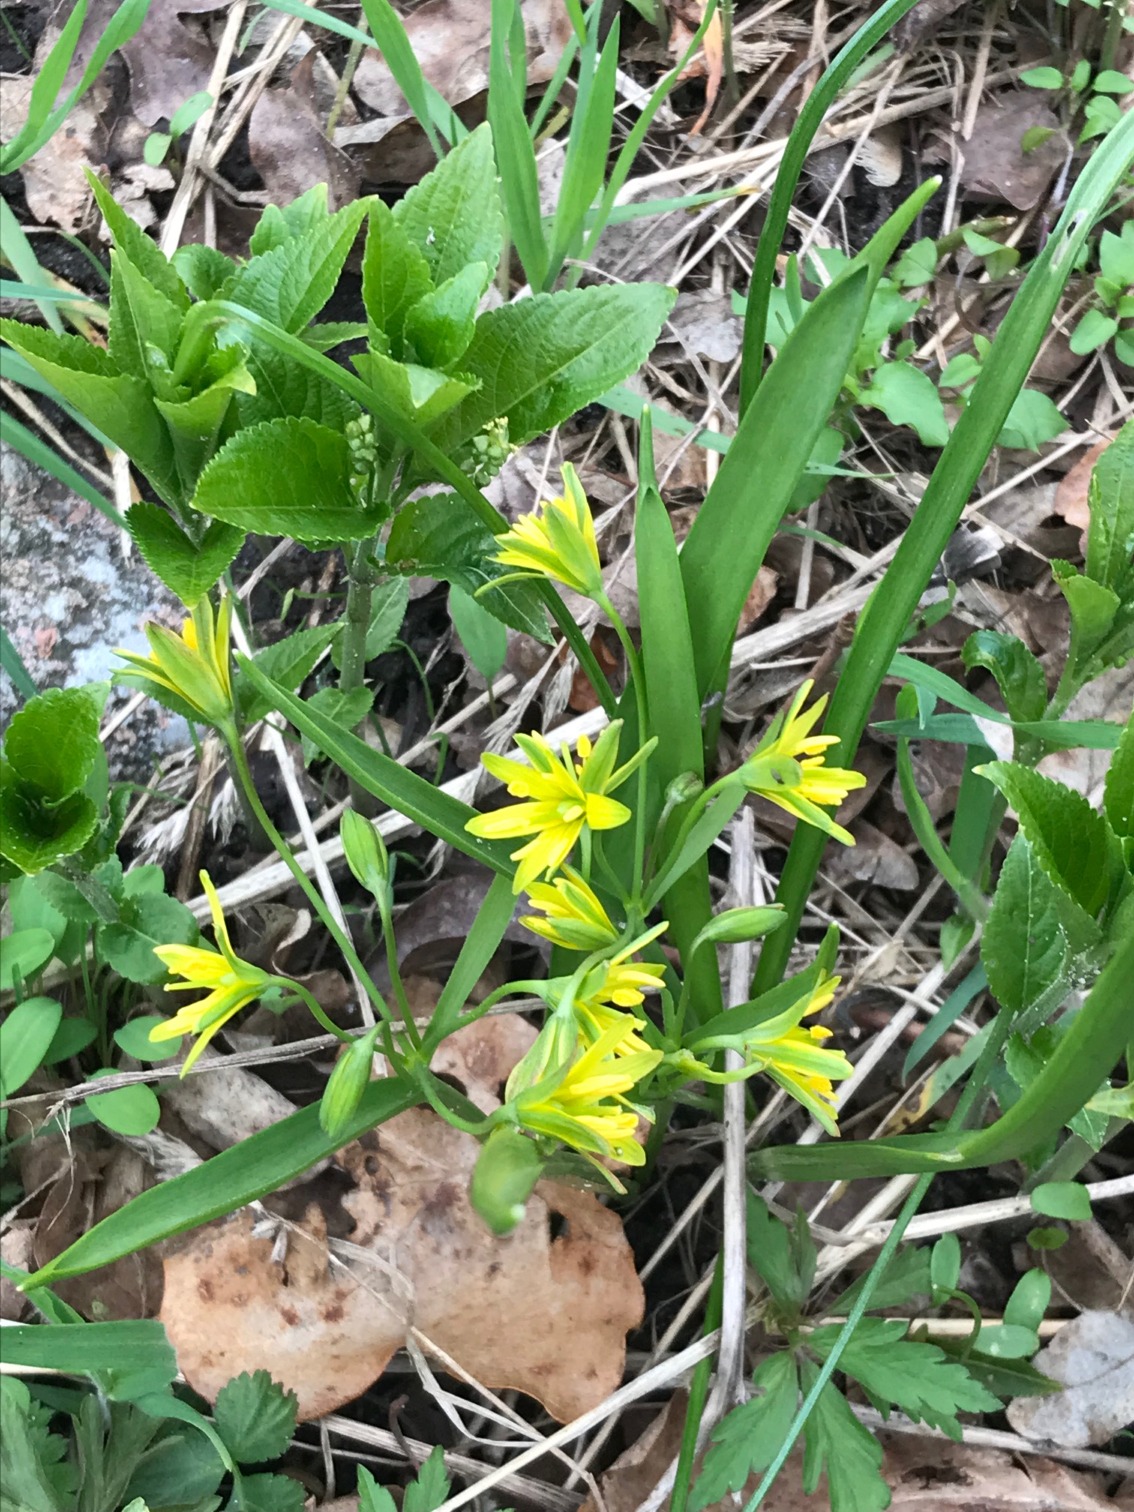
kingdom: Plantae
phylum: Tracheophyta
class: Liliopsida
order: Liliales
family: Liliaceae
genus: Gagea
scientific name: Gagea lutea
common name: Almindelig guldstjerne
